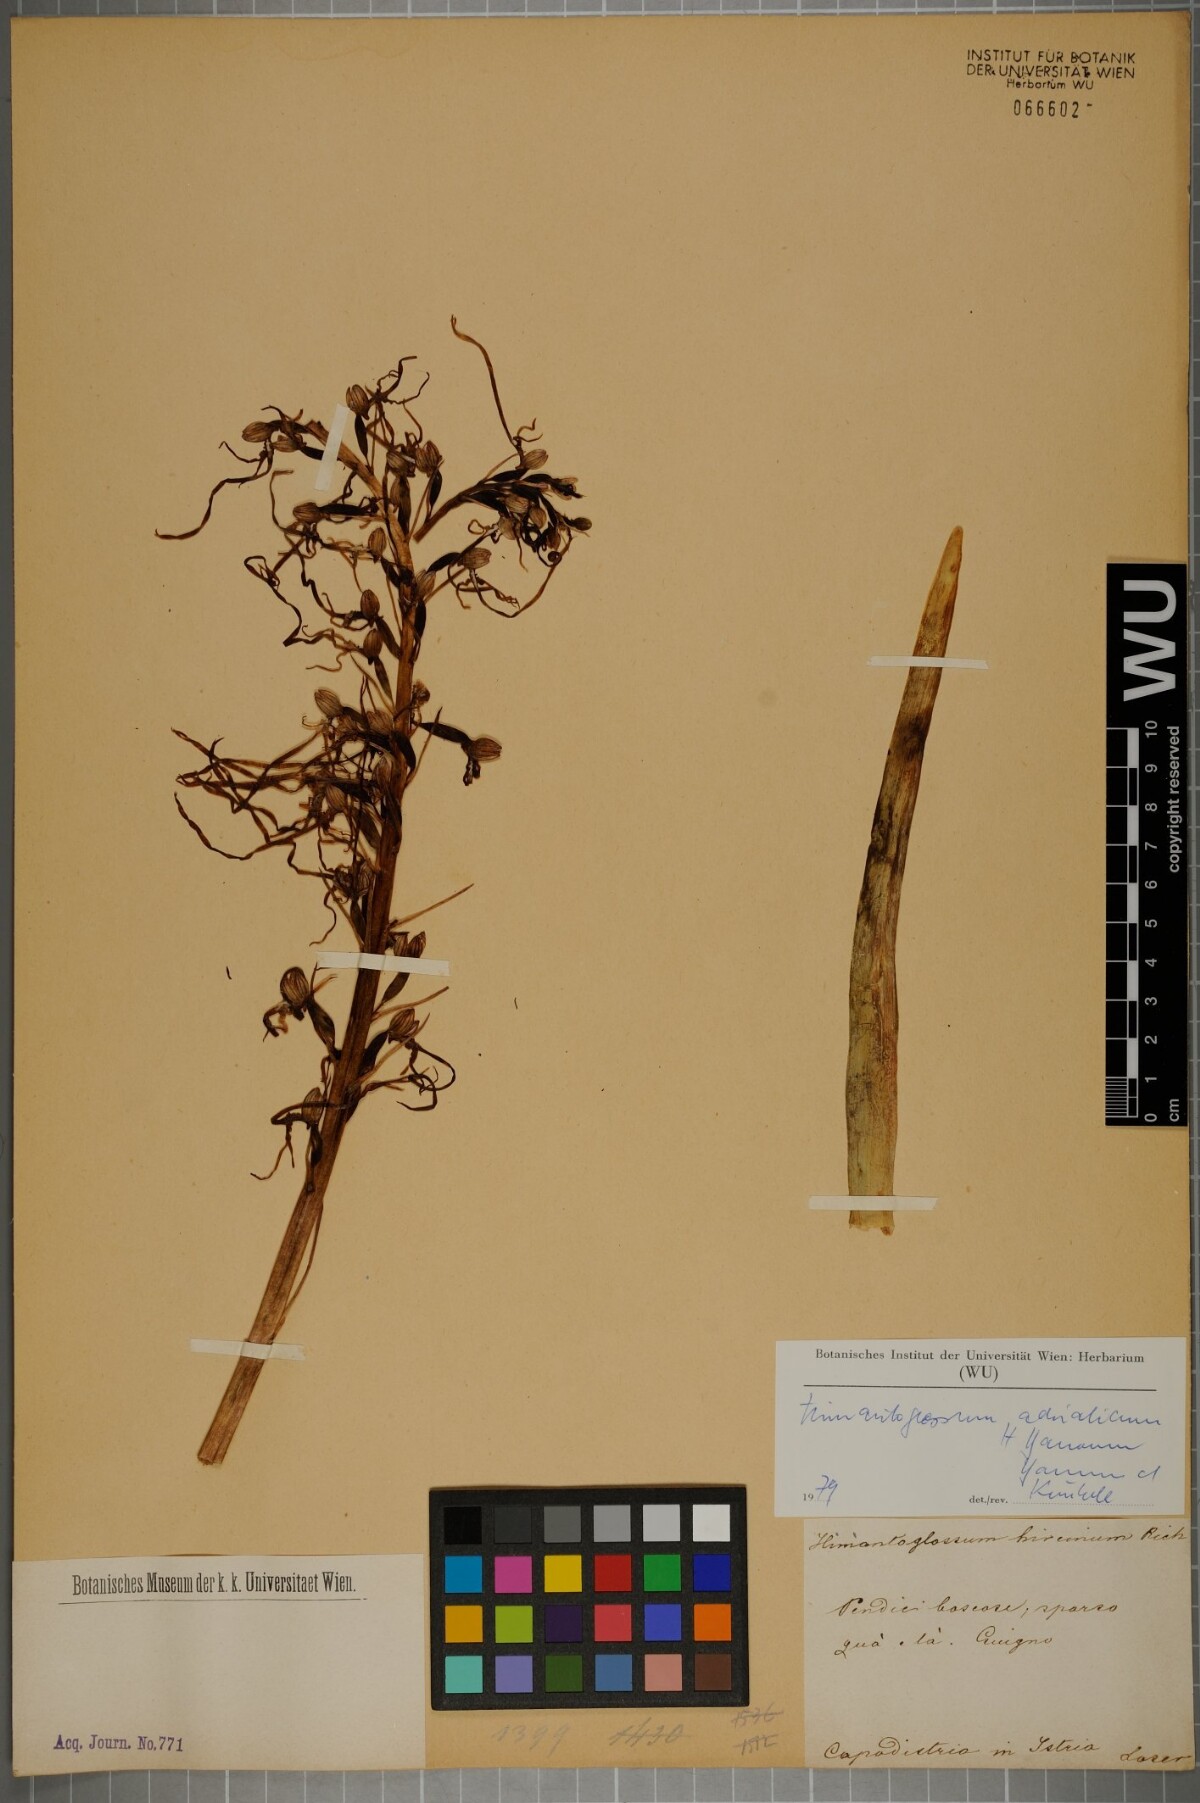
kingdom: Plantae
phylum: Tracheophyta
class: Liliopsida
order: Asparagales
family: Orchidaceae
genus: Himantoglossum
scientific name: Himantoglossum adriaticum
